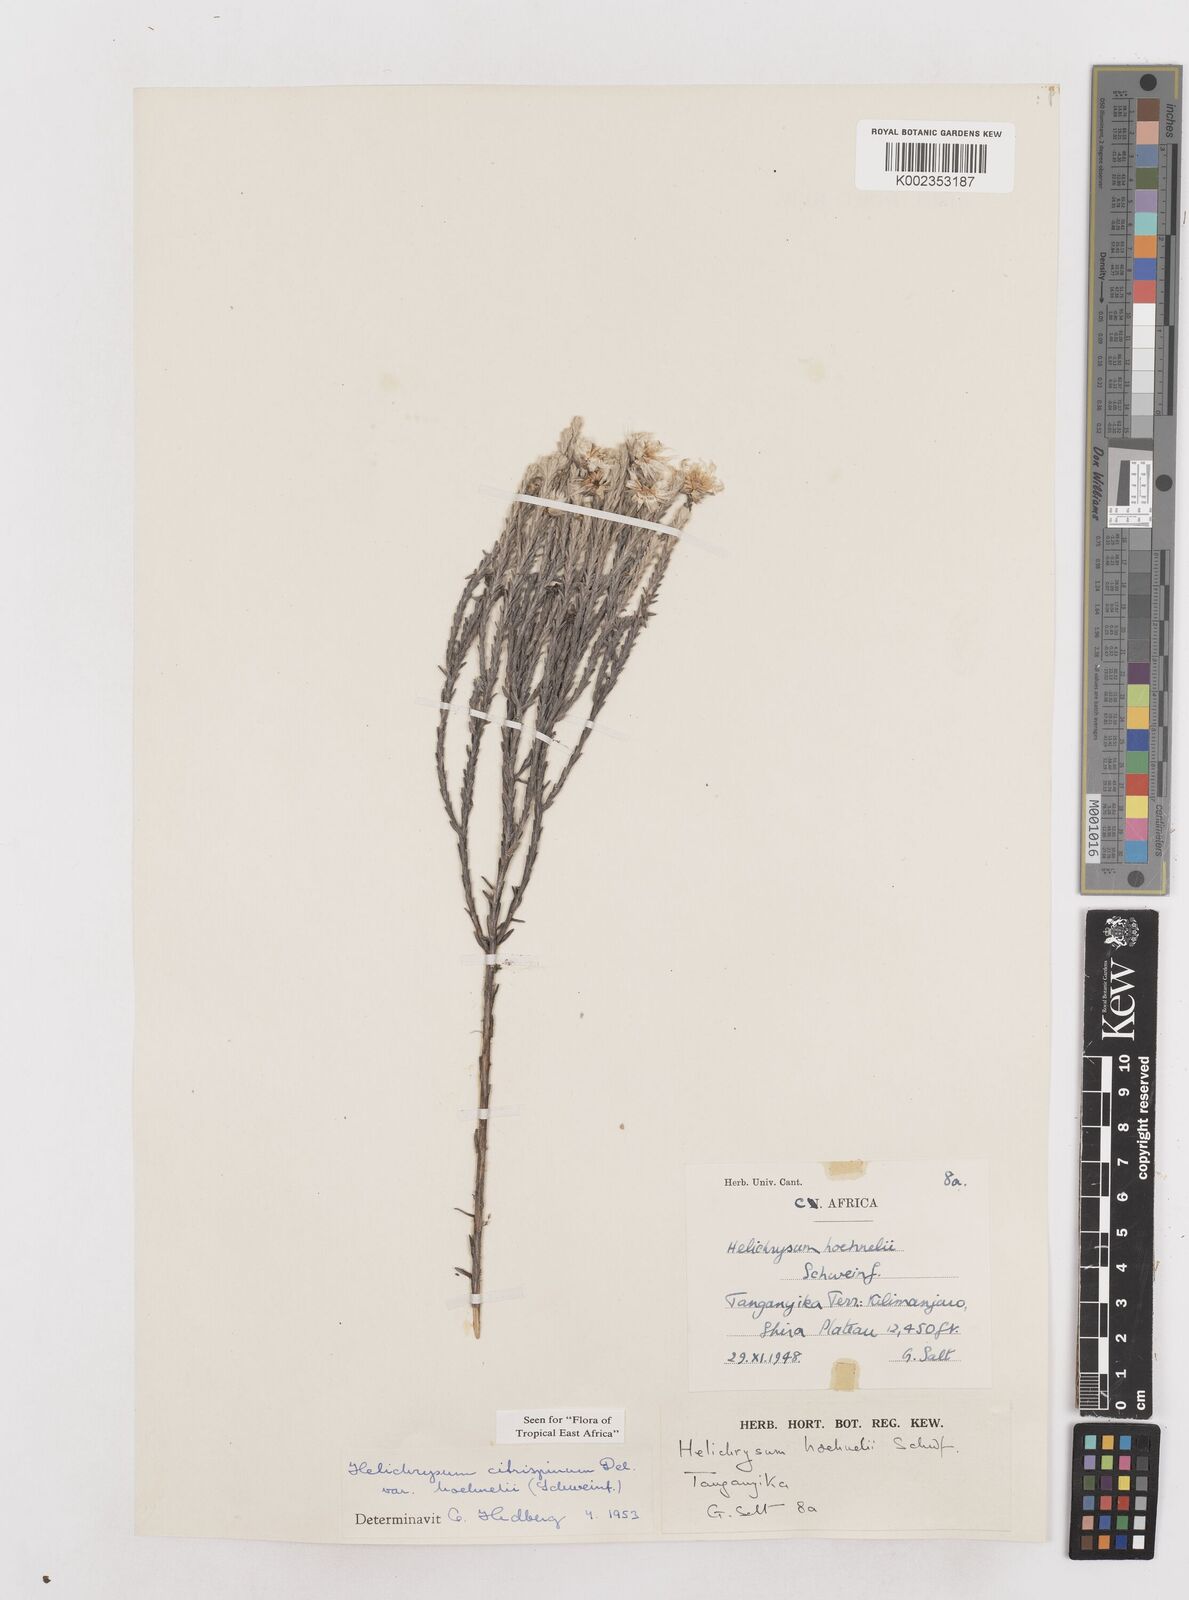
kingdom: Plantae
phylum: Tracheophyta
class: Magnoliopsida
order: Asterales
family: Asteraceae
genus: Helichrysum
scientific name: Helichrysum citrispinum
